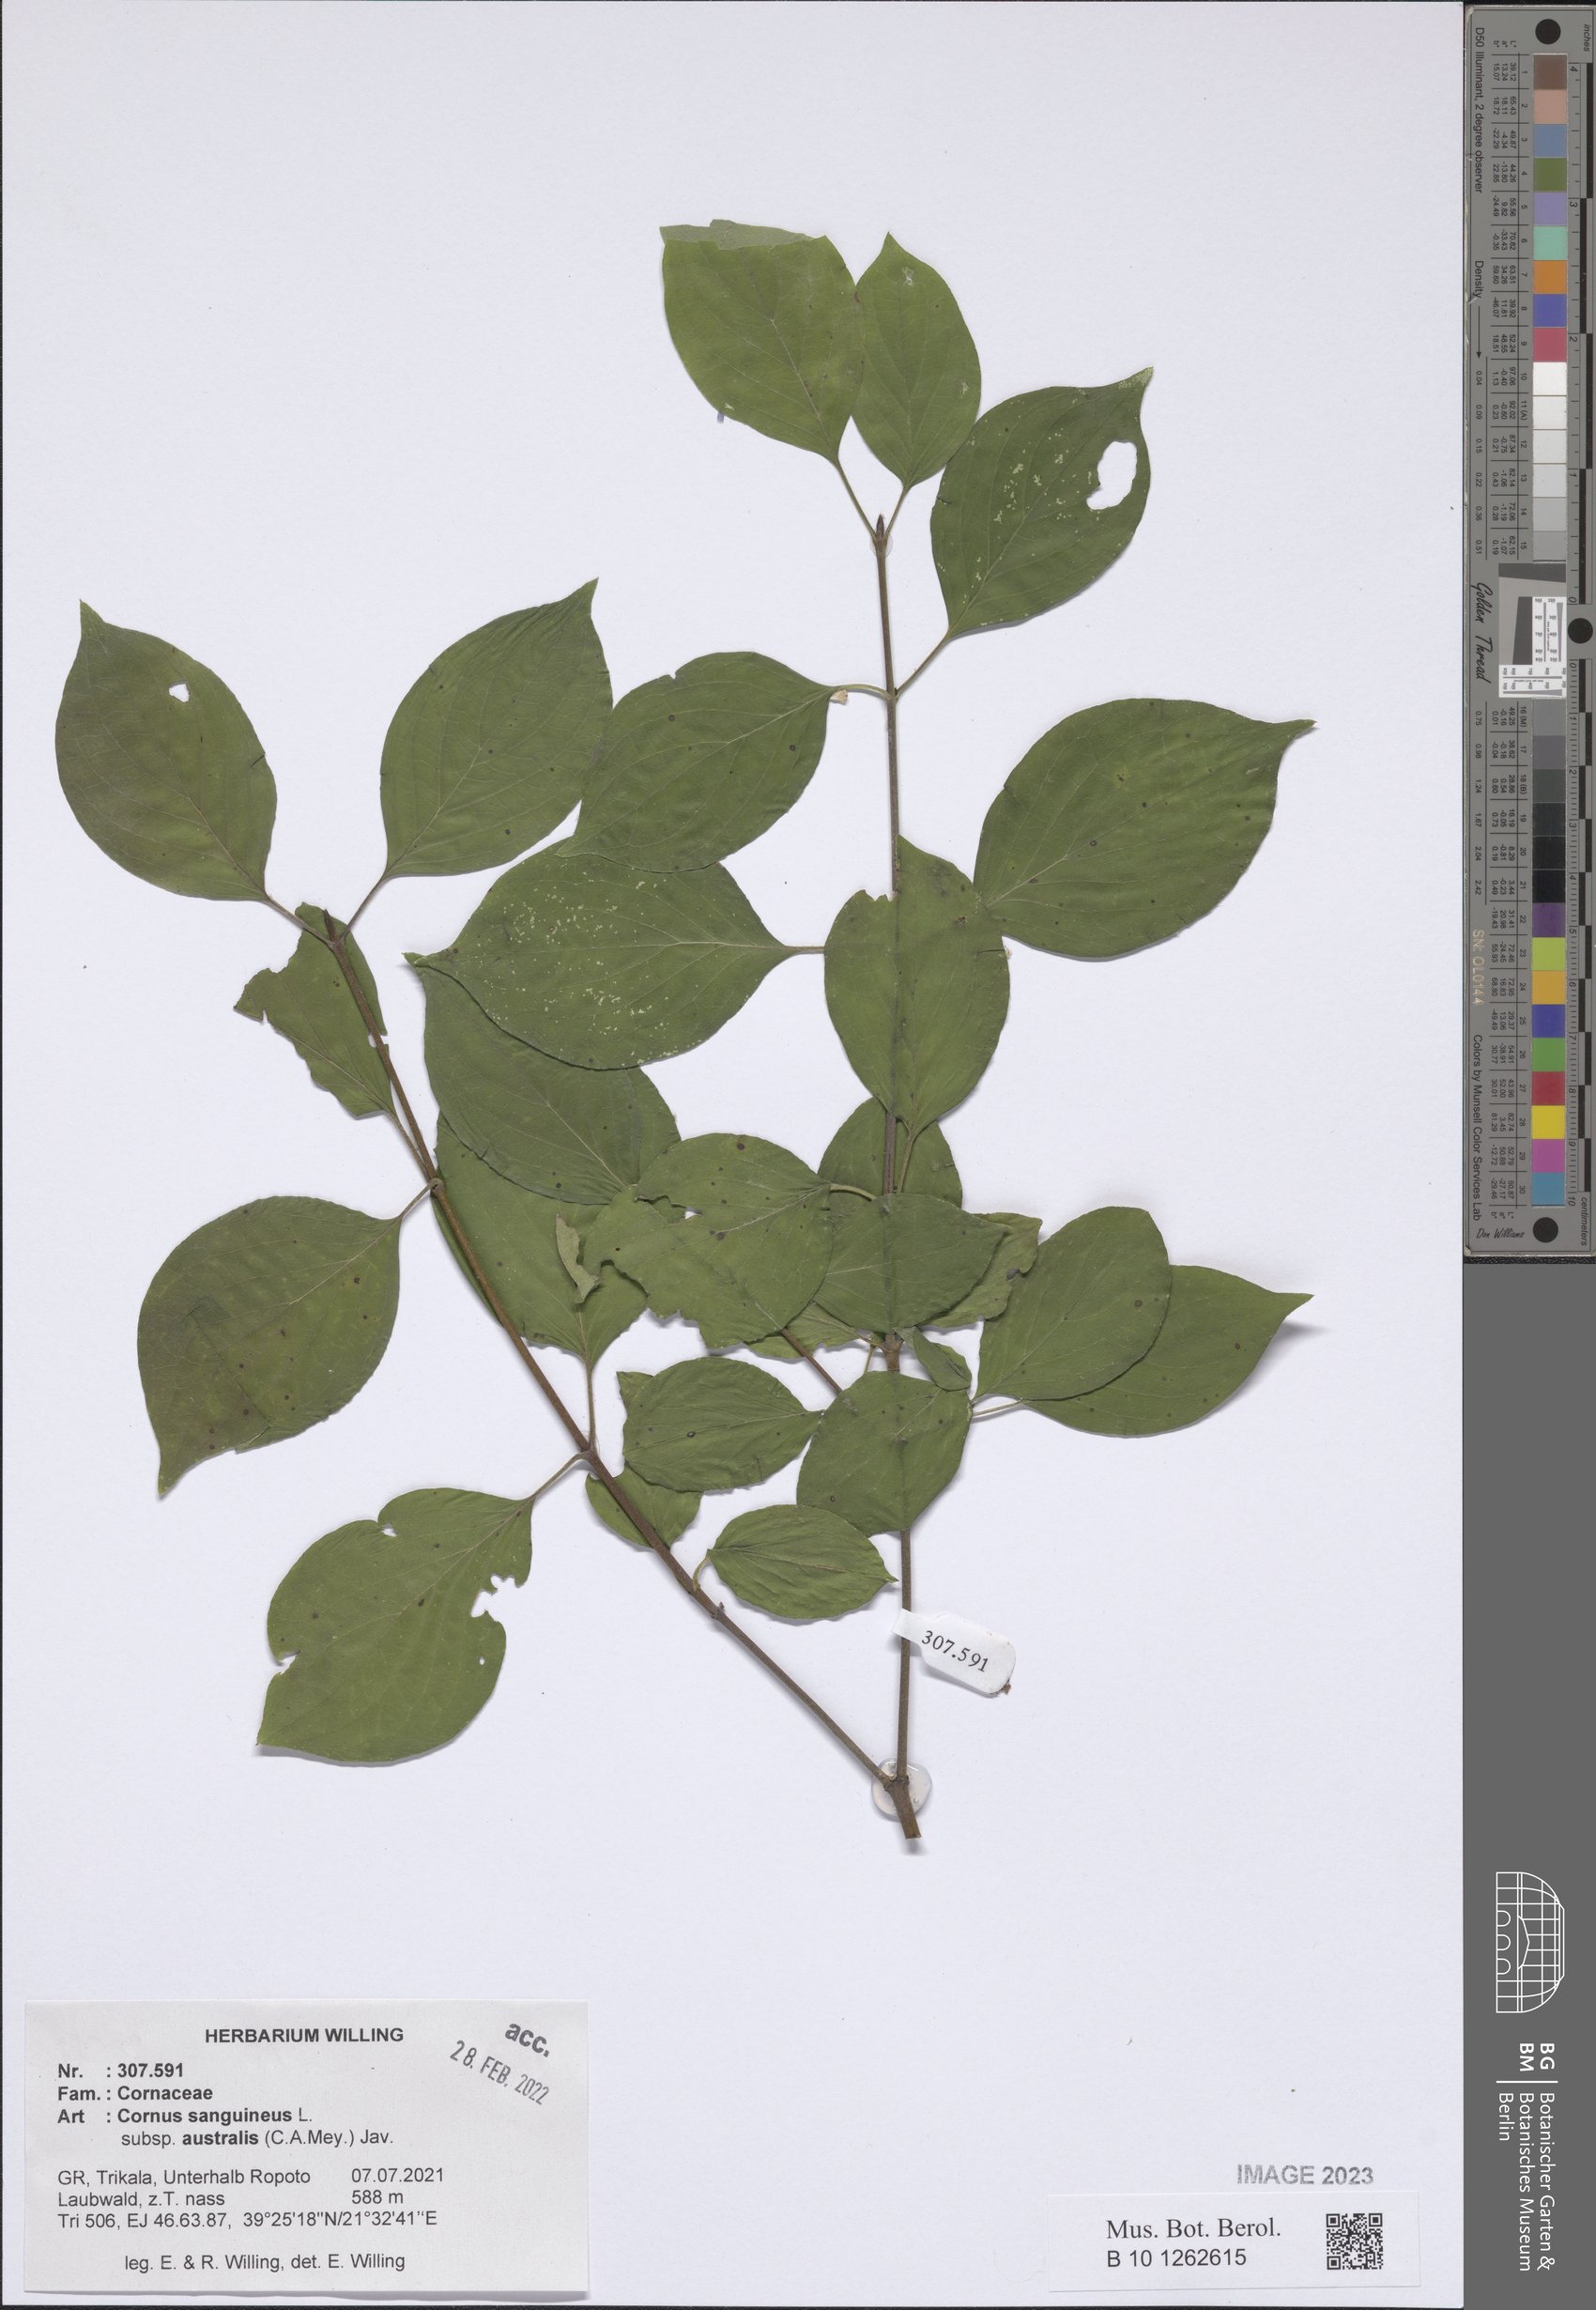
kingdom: Plantae
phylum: Tracheophyta
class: Magnoliopsida
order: Cornales
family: Cornaceae
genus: Cornus
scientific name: Cornus sanguinea
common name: Dogwood
